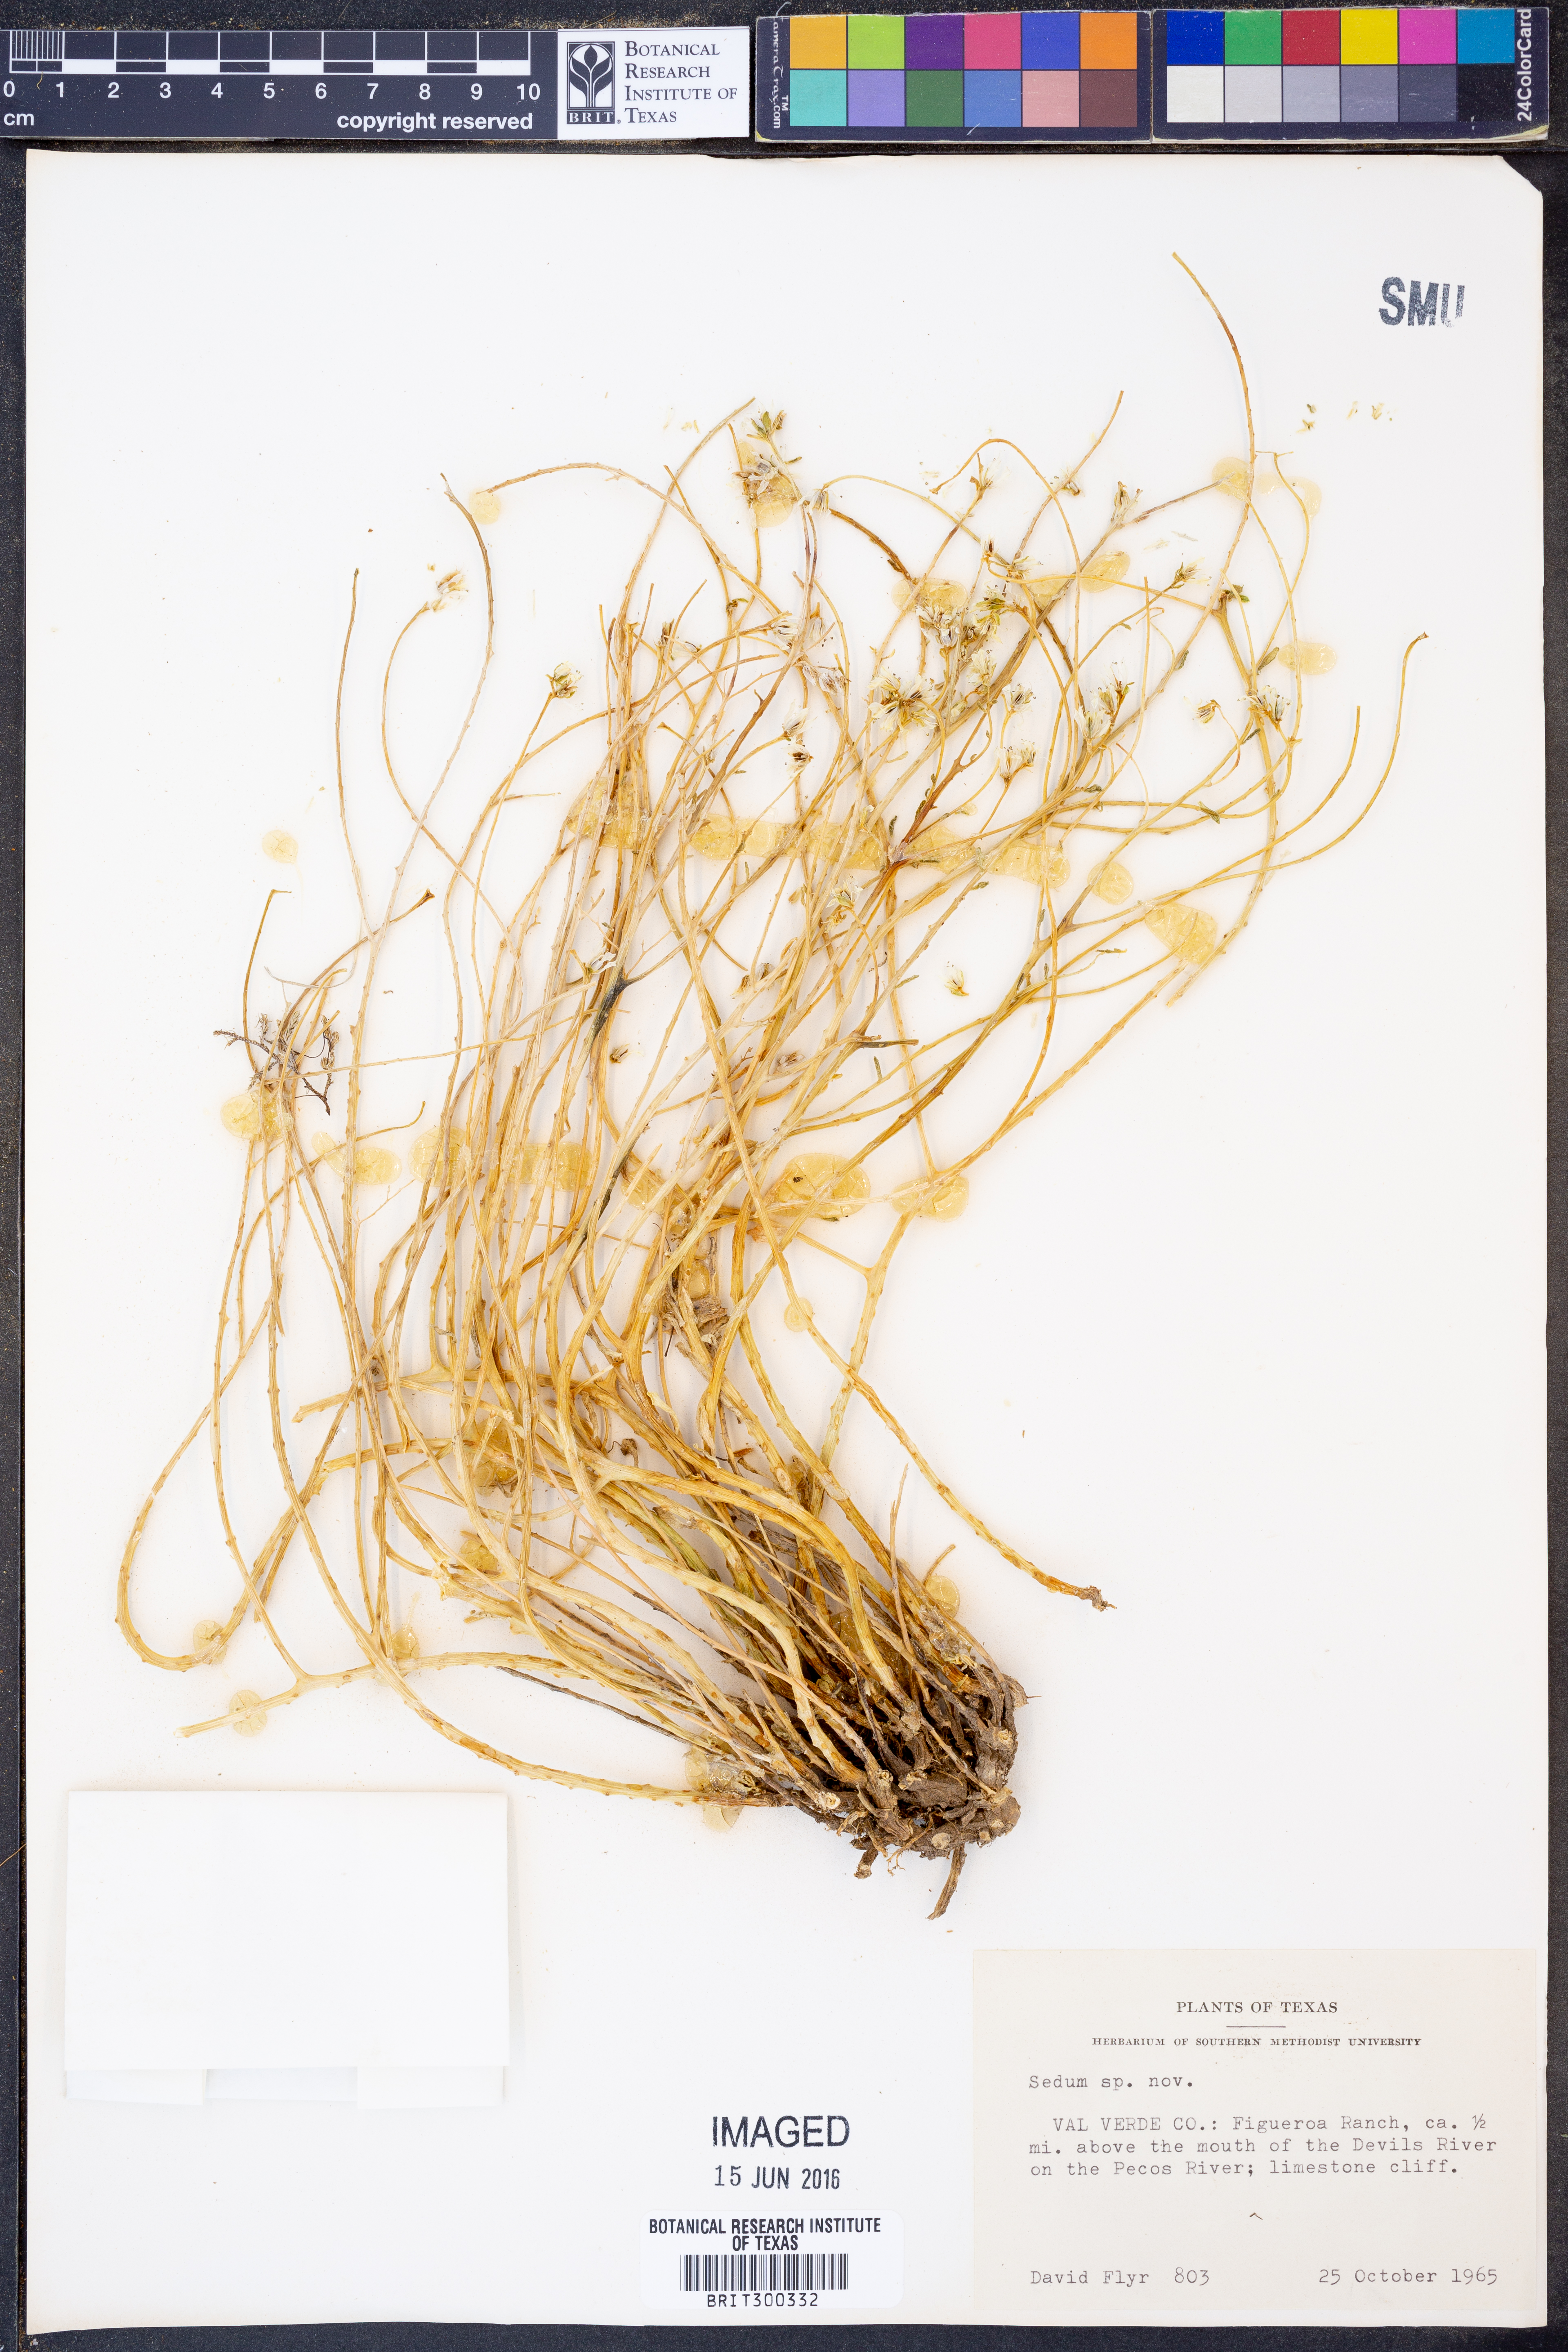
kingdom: Plantae
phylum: Tracheophyta
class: Magnoliopsida
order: Saxifragales
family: Crassulaceae
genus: Sedum
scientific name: Sedum
